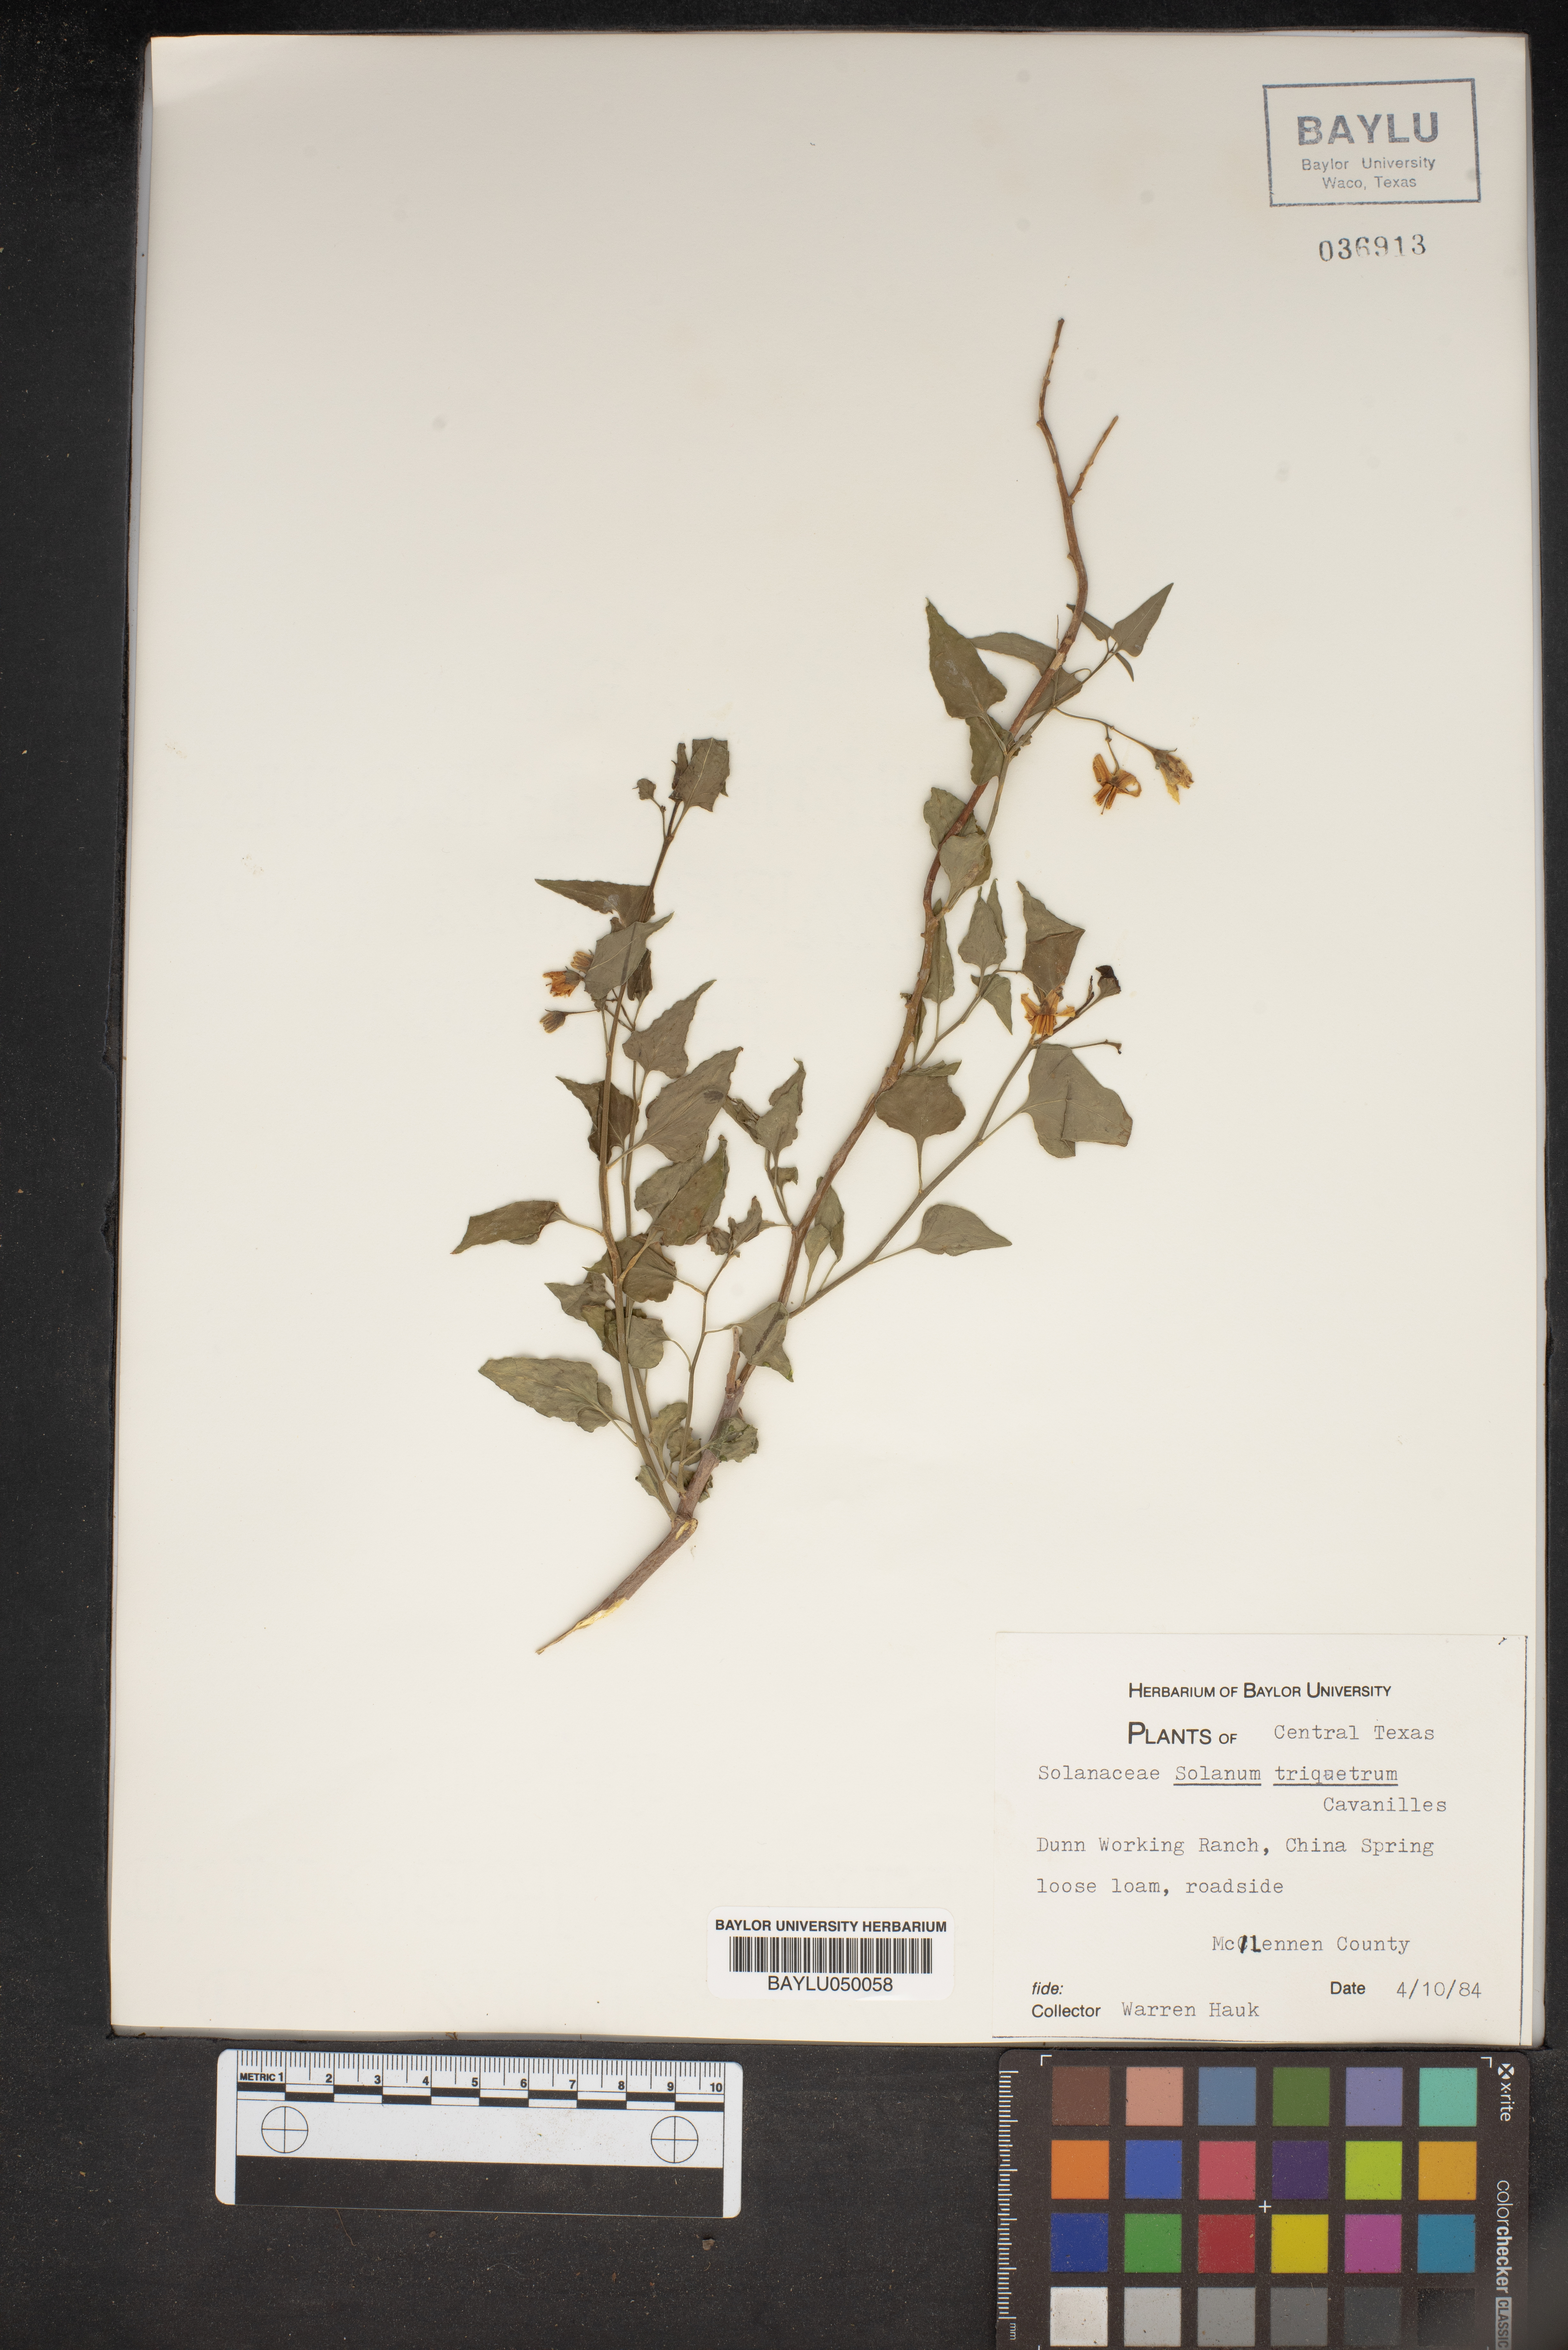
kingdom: Plantae
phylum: Tracheophyta
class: Magnoliopsida
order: Solanales
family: Solanaceae
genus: Solanum
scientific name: Solanum triquetrum
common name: Texas nightshade
